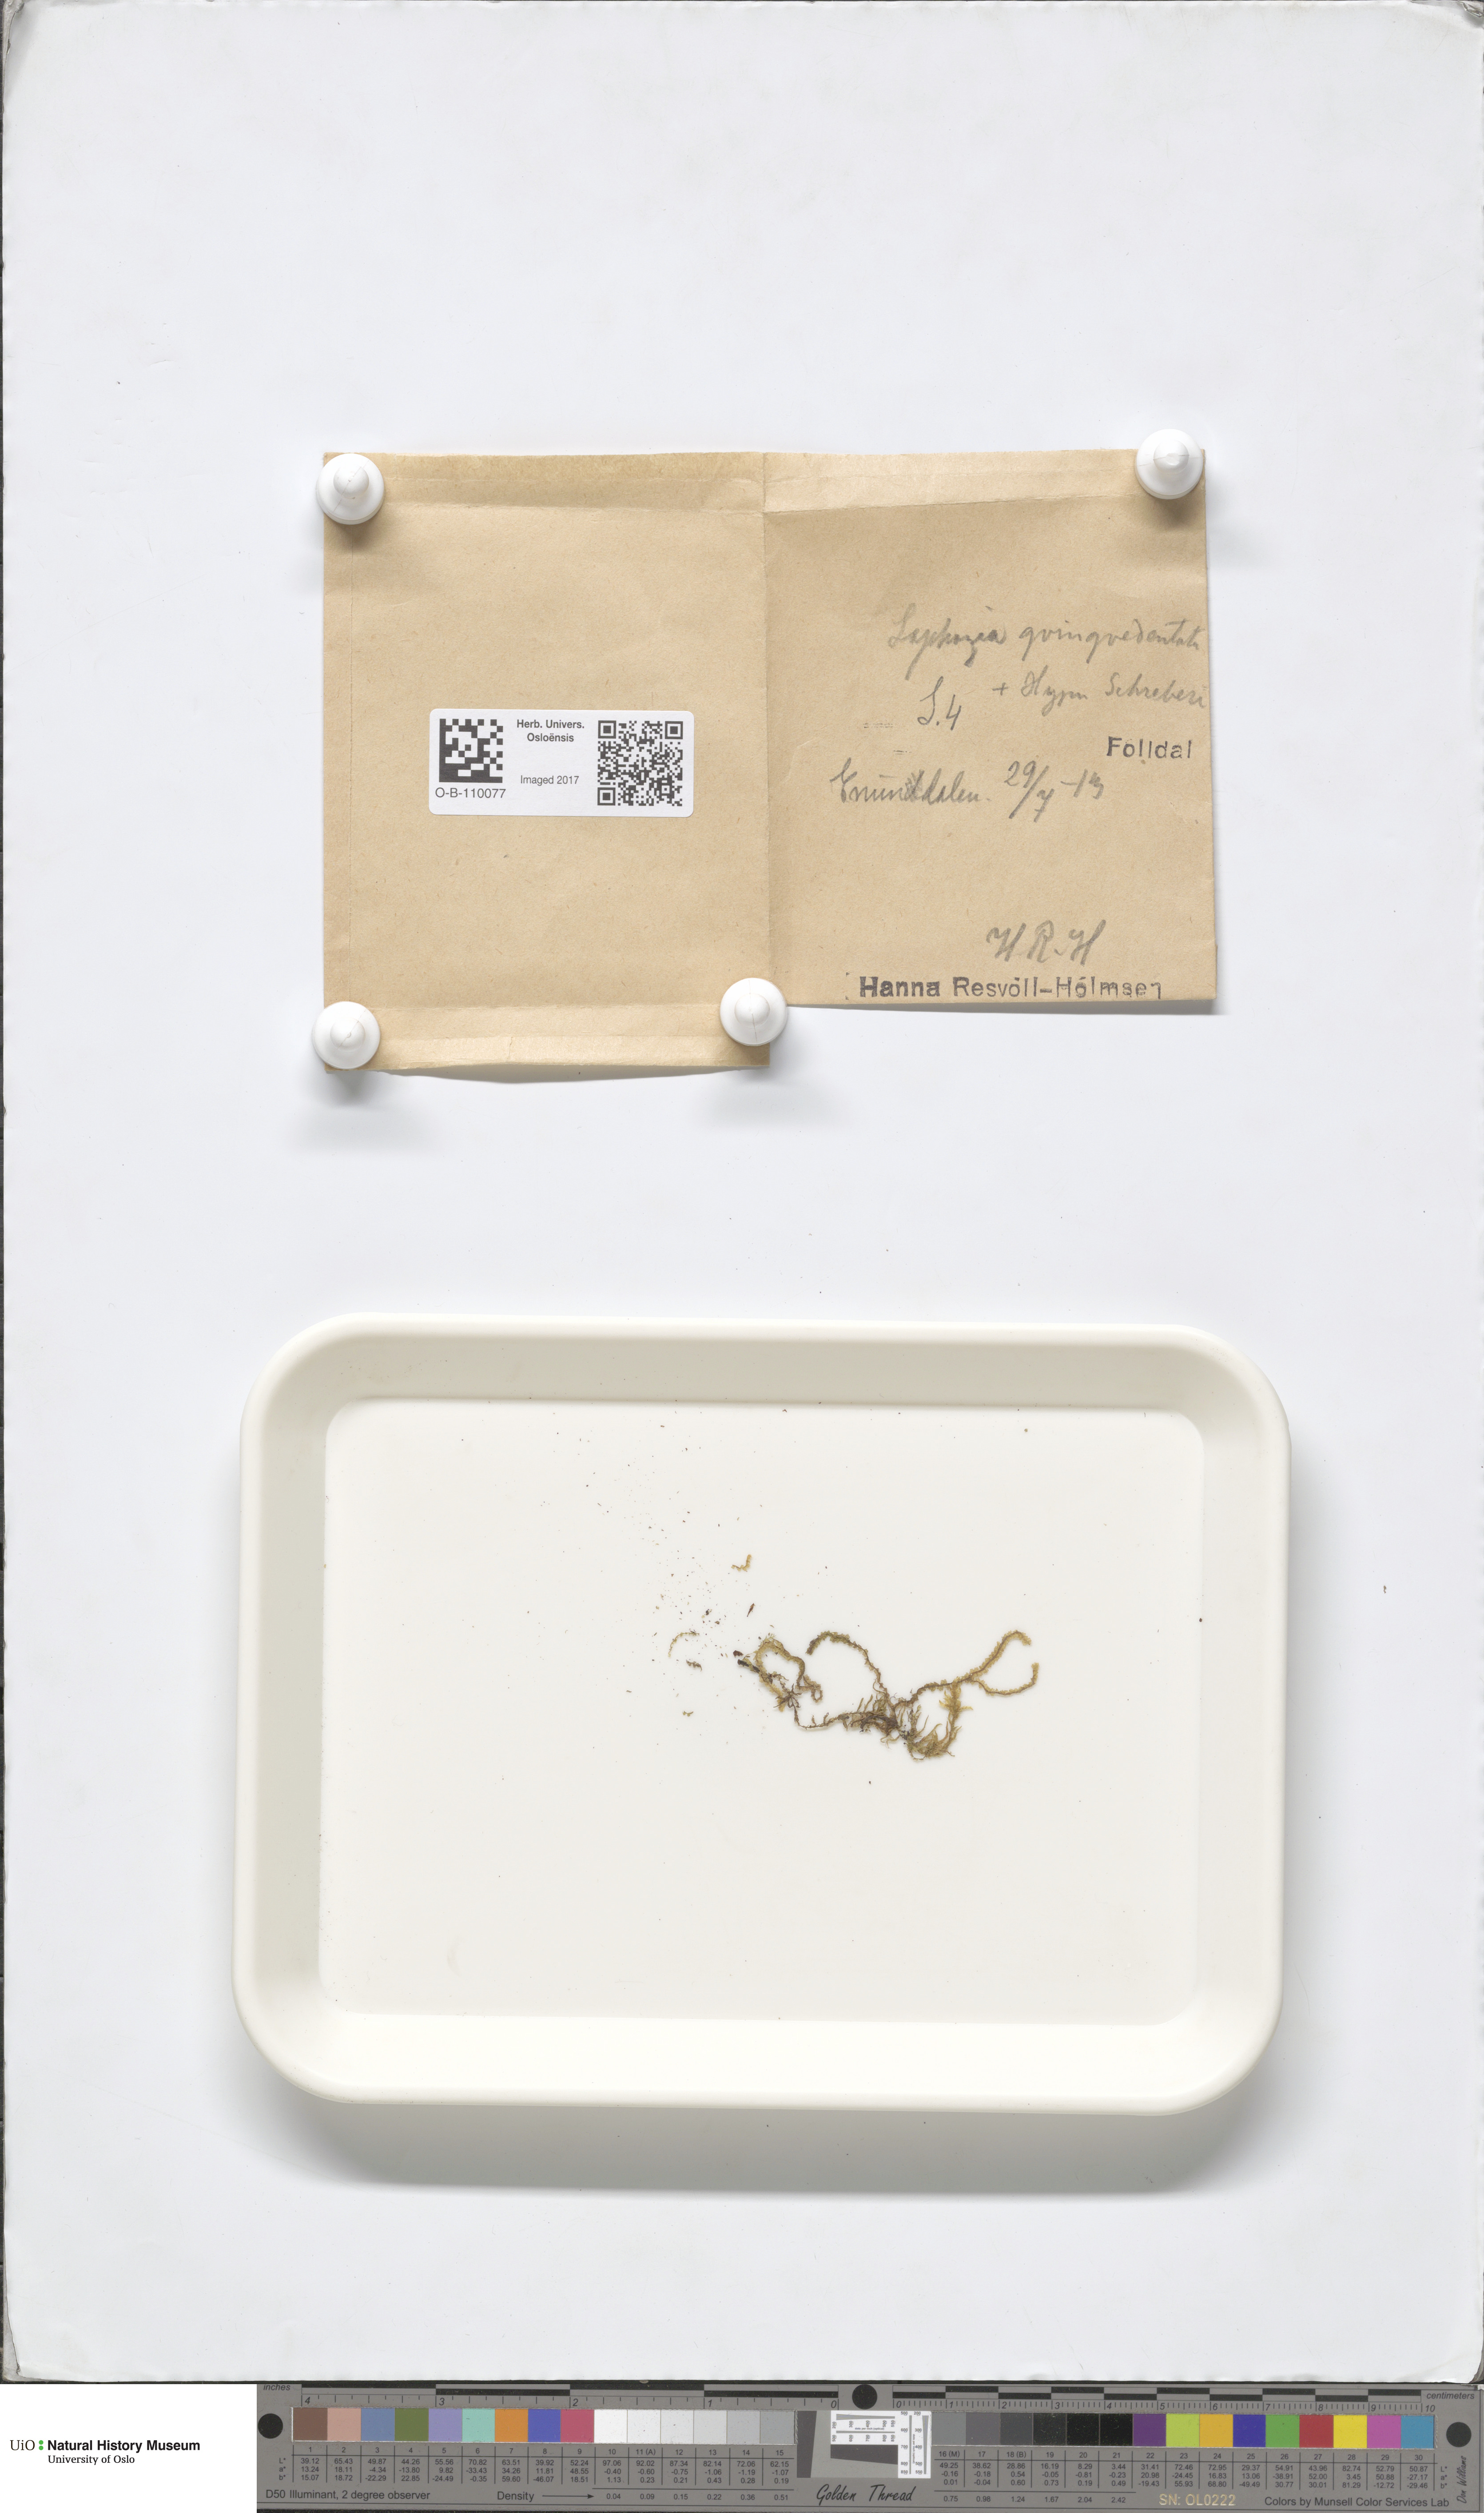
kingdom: Plantae
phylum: Marchantiophyta
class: Jungermanniopsida
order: Jungermanniales
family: Lophoziaceae
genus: Trilophozia
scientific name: Trilophozia quinquedentata
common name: Large notchwort
